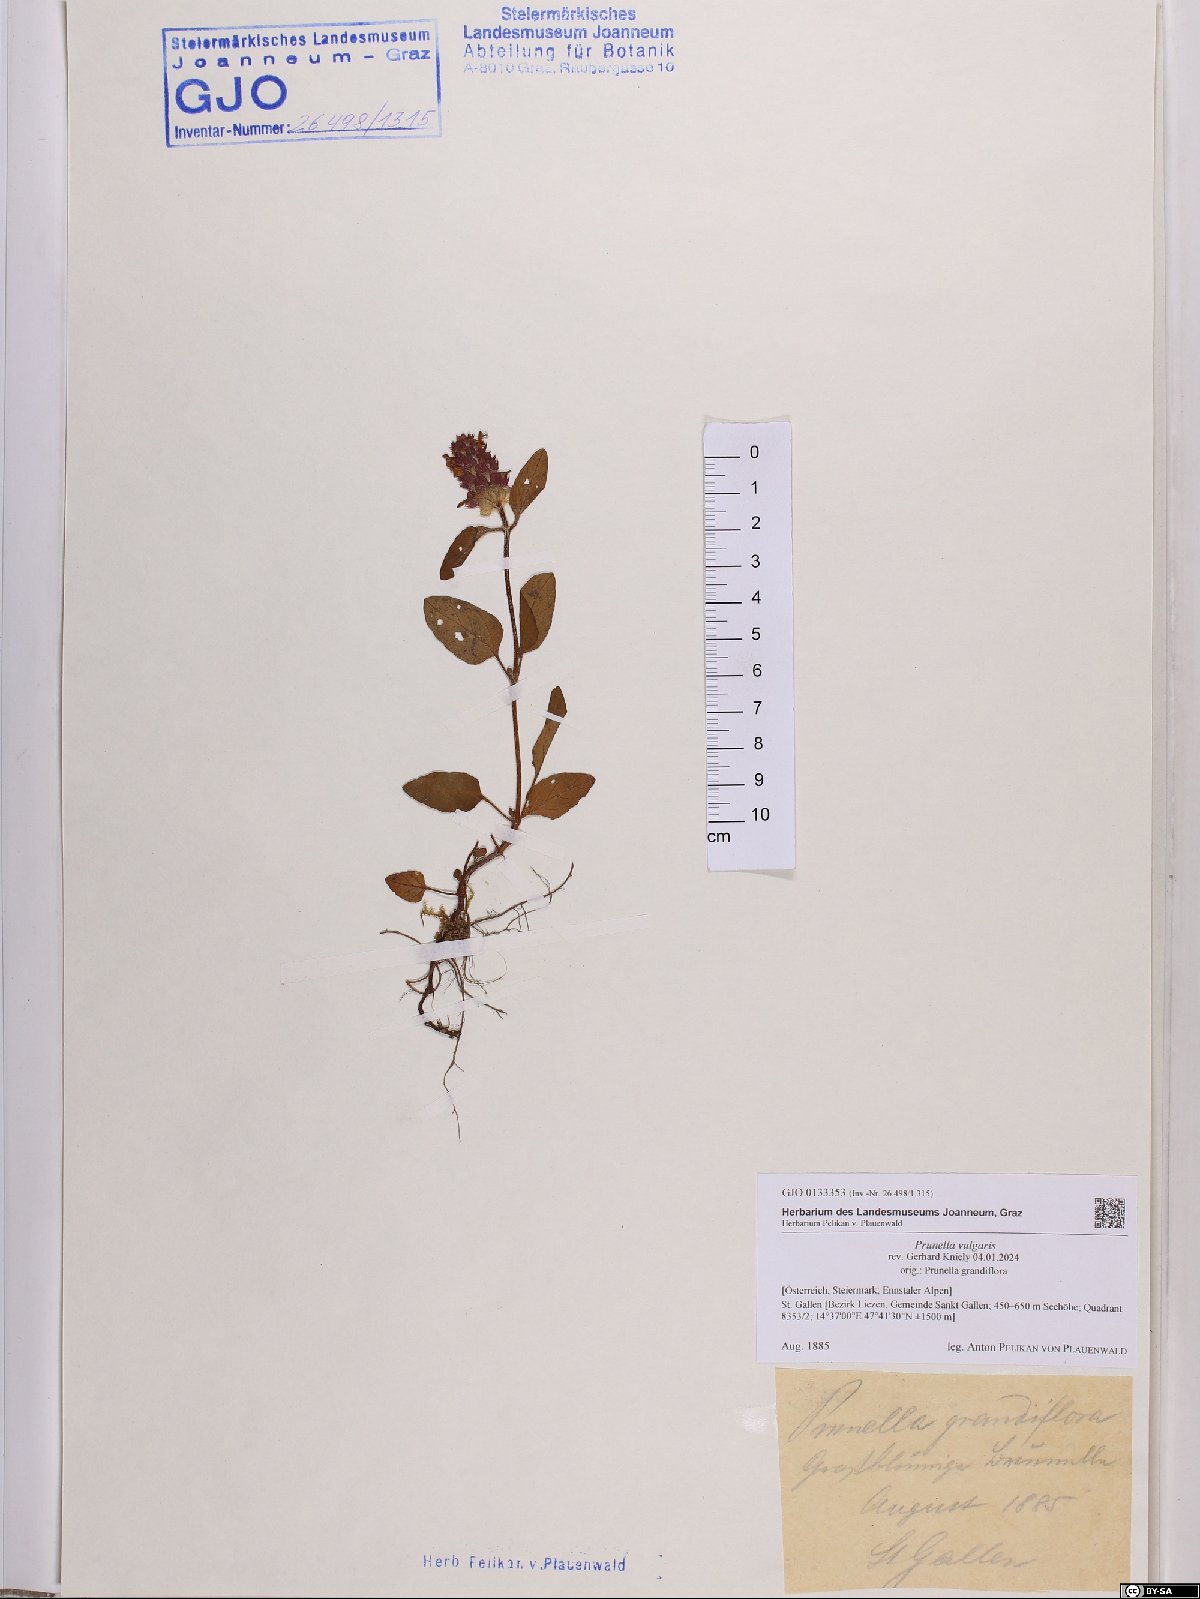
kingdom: Plantae
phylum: Tracheophyta
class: Magnoliopsida
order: Lamiales
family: Lamiaceae
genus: Prunella
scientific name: Prunella vulgaris
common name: Heal-all
